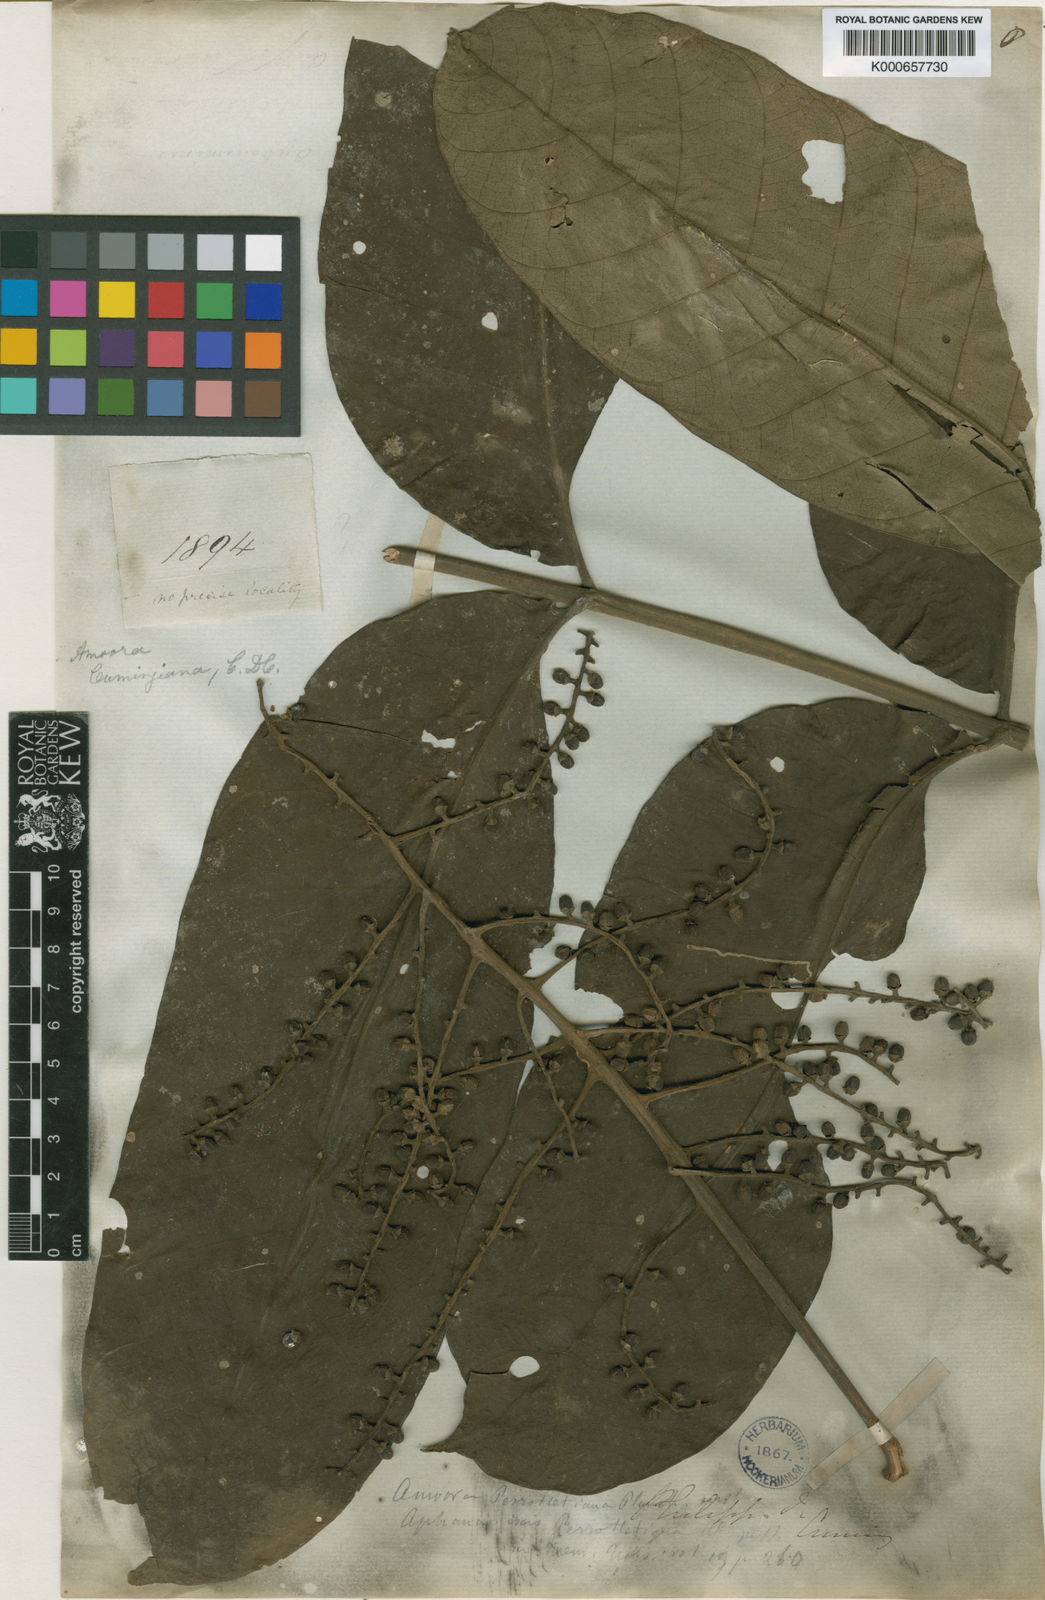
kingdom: Plantae
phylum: Tracheophyta
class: Magnoliopsida
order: Sapindales
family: Meliaceae
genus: Aphanamixis
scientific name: Aphanamixis polystachya
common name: Pithraj tree
